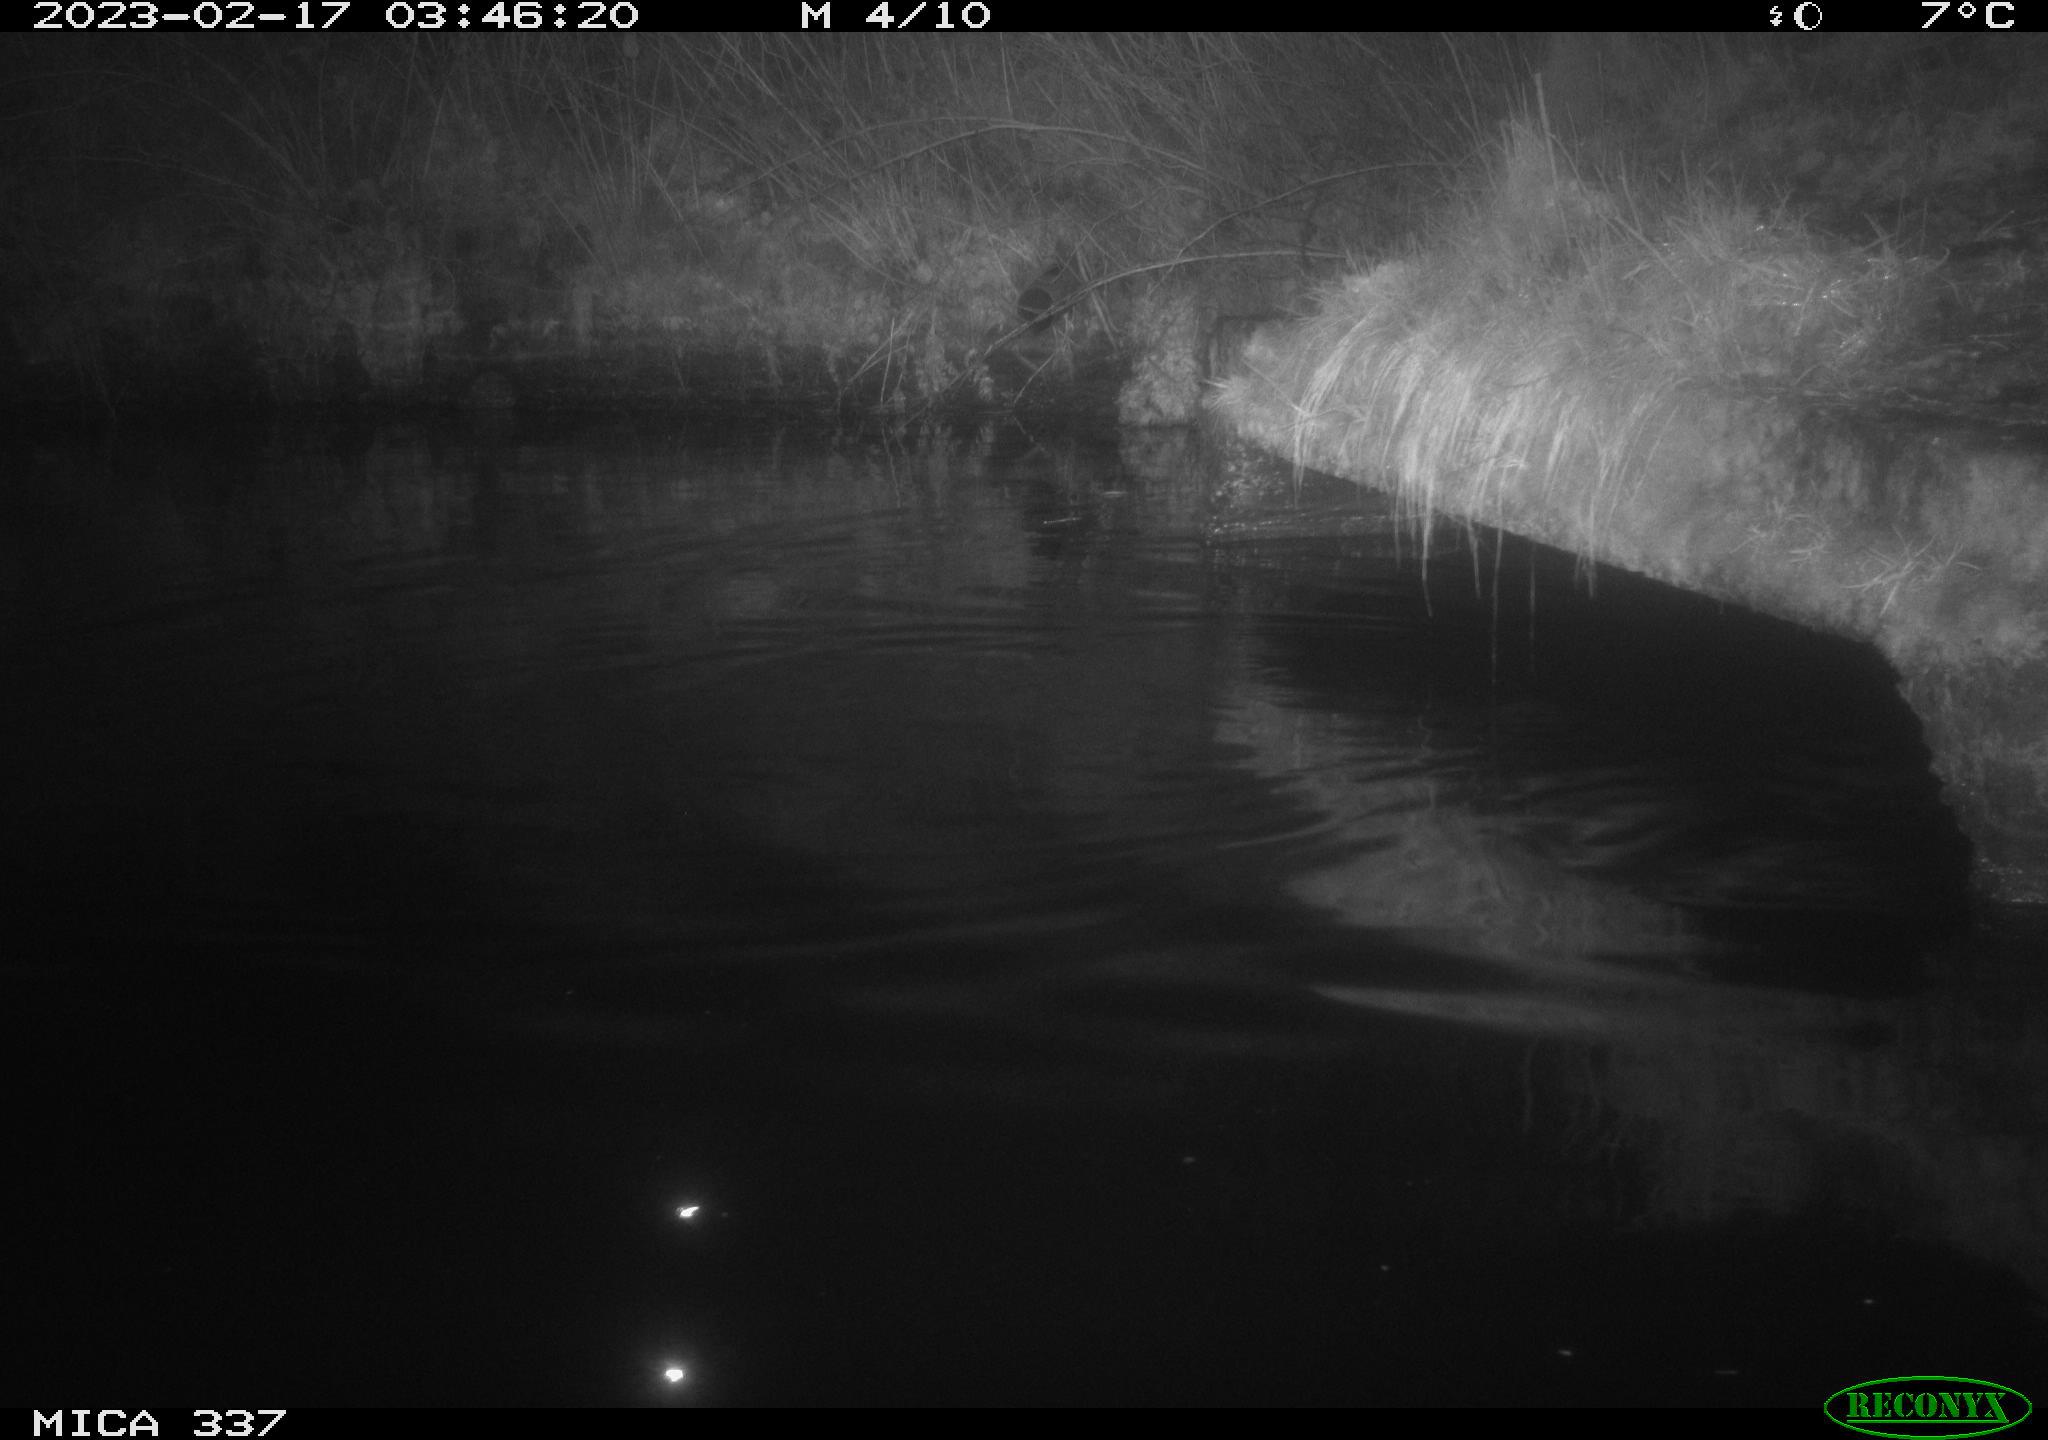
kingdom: Animalia
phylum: Chordata
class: Mammalia
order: Rodentia
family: Cricetidae
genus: Ondatra
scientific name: Ondatra zibethicus
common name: Muskrat
